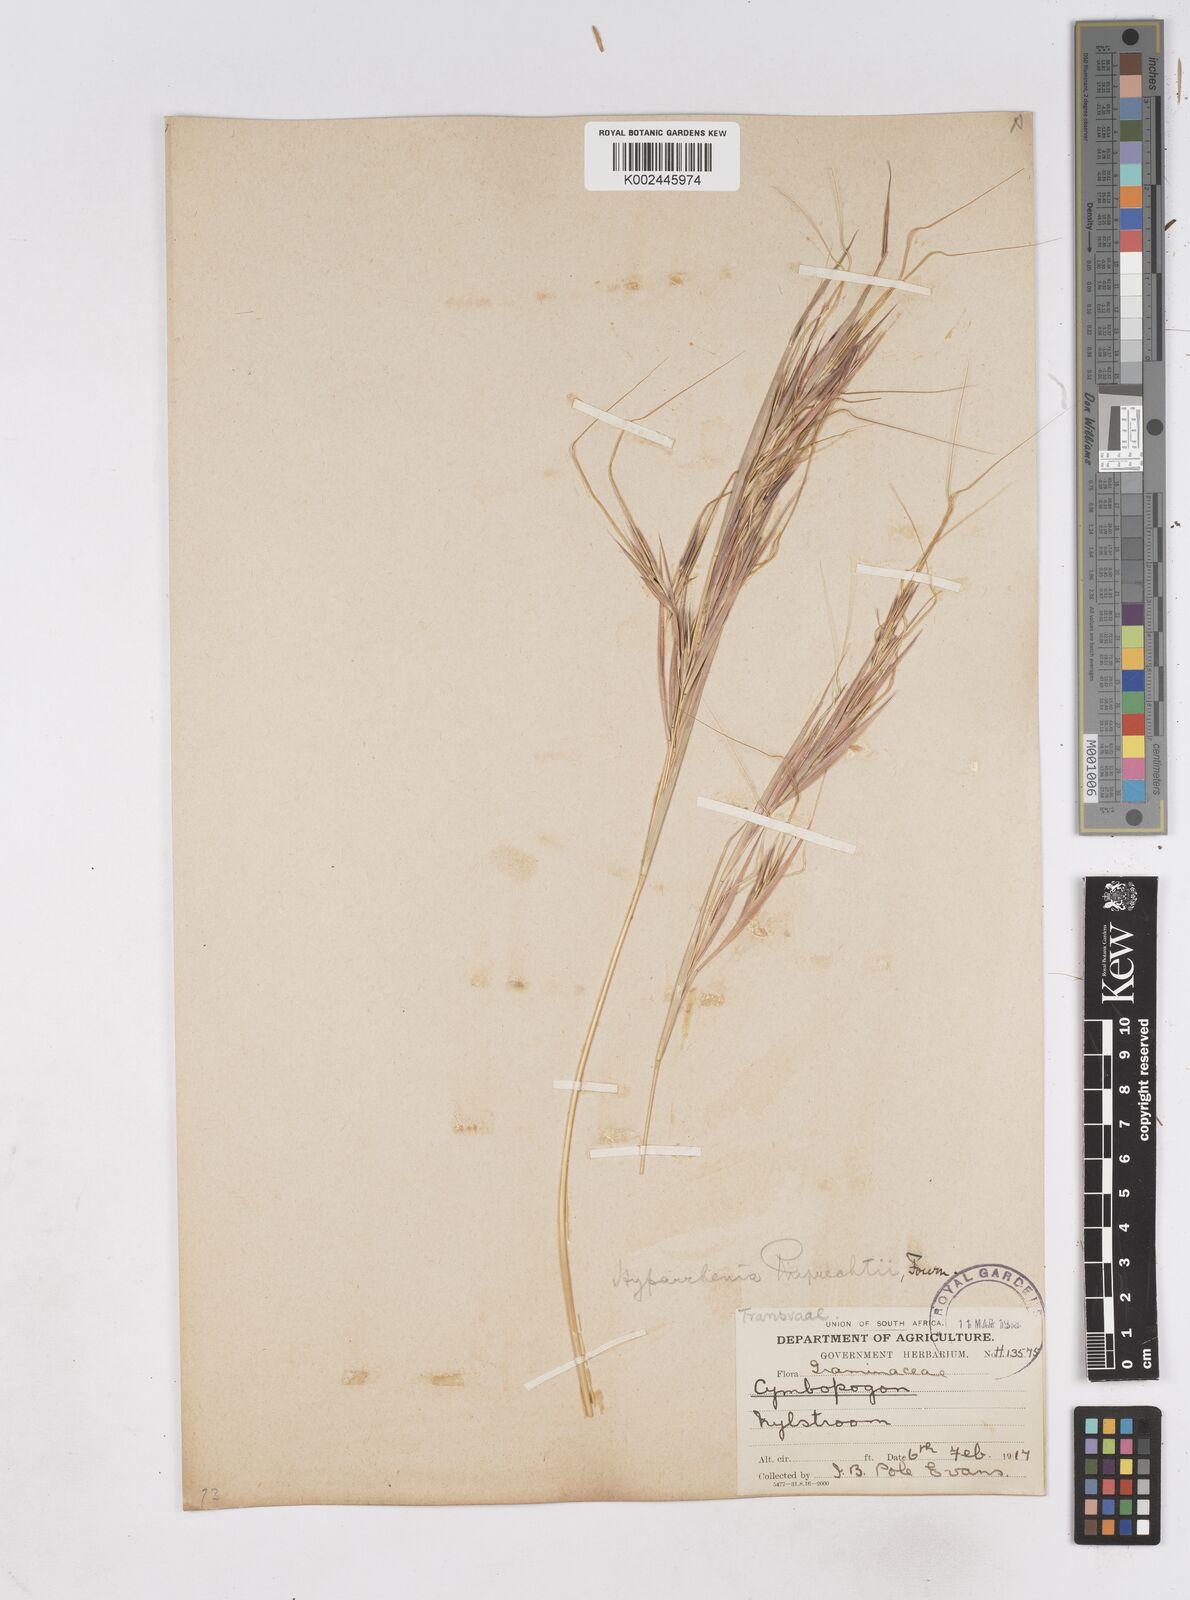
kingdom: Plantae
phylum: Tracheophyta
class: Liliopsida
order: Poales
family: Poaceae
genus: Hyperthelia
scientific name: Hyperthelia dissoluta
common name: Yellow thatching grass
